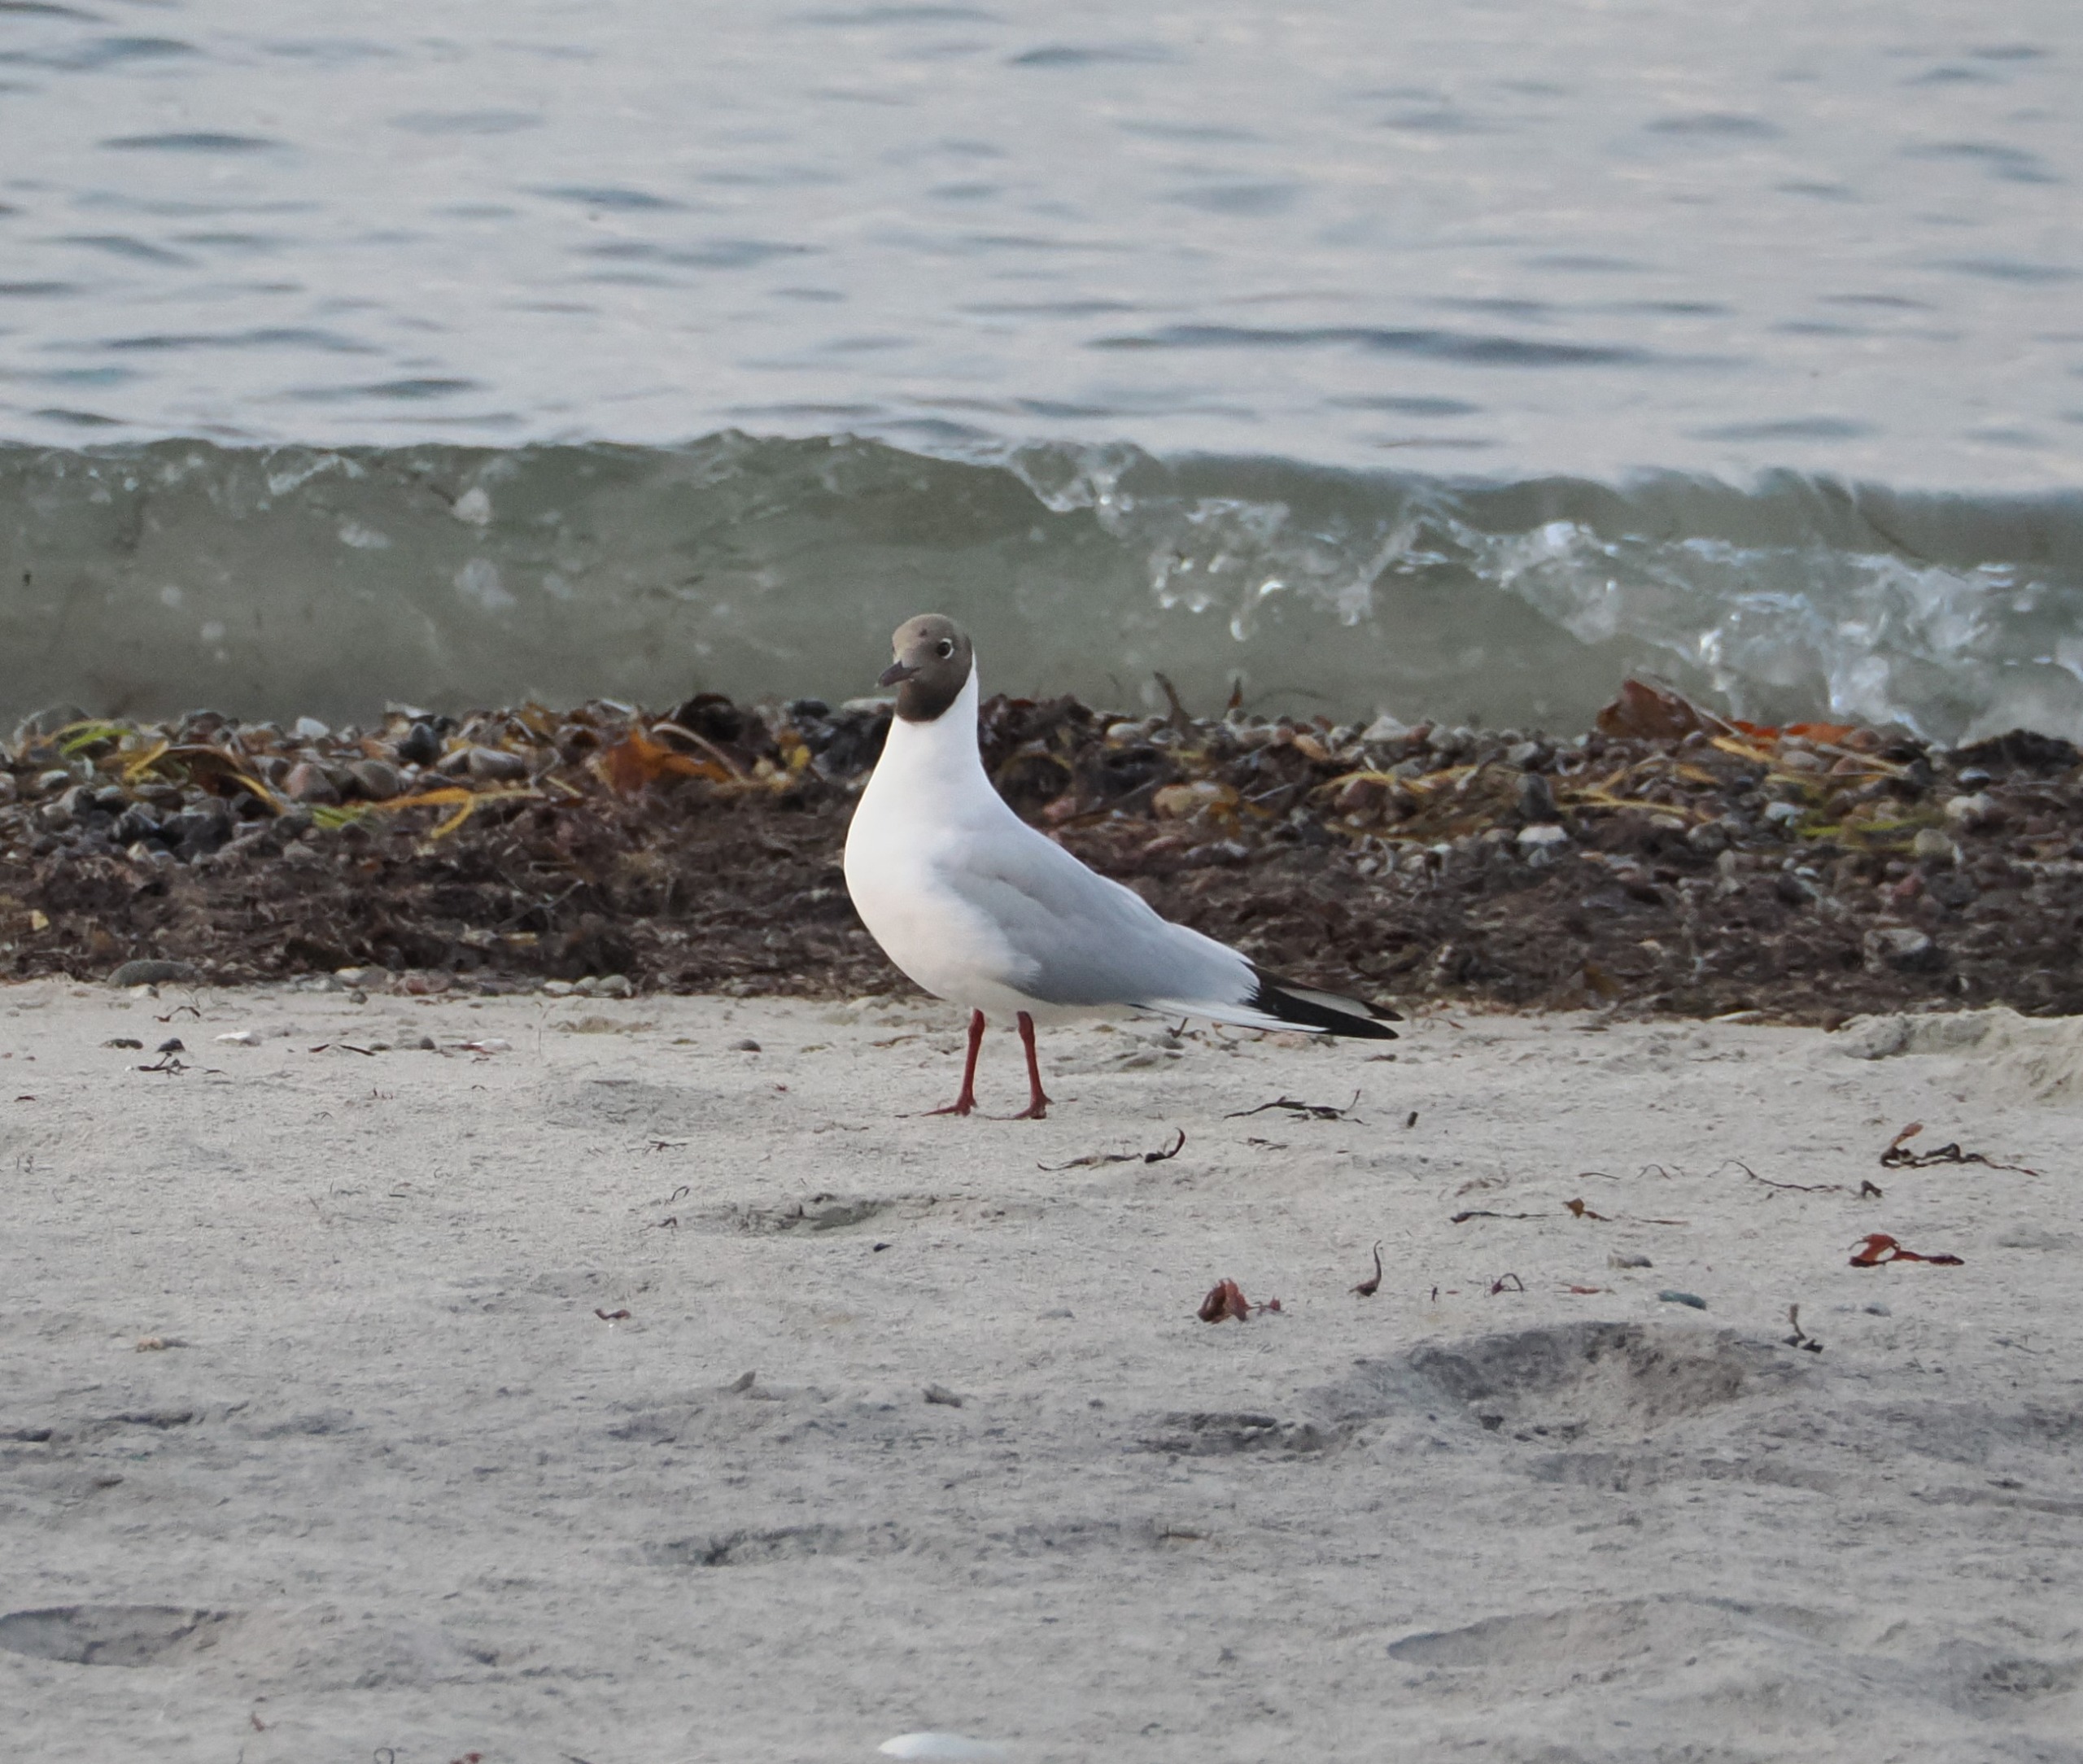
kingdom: Animalia
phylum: Chordata
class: Aves
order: Charadriiformes
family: Laridae
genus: Chroicocephalus
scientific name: Chroicocephalus ridibundus
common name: Hættemåge
